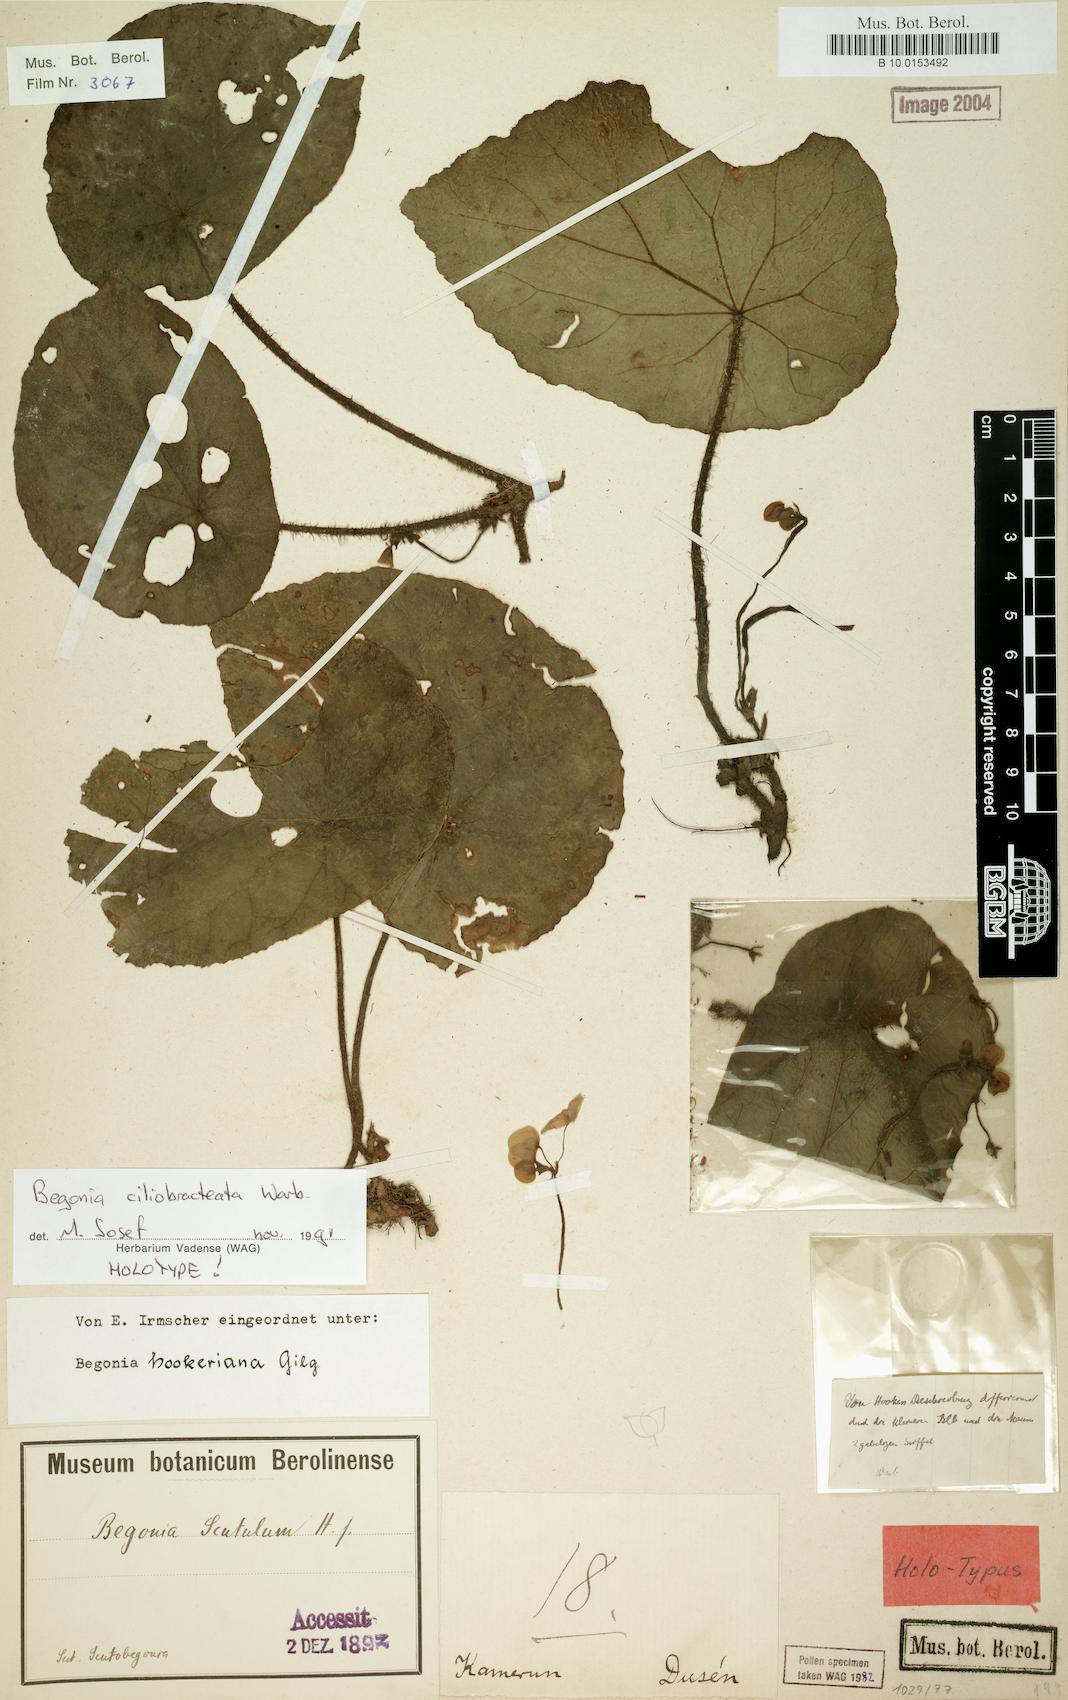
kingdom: Plantae
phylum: Tracheophyta
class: Magnoliopsida
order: Cucurbitales
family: Begoniaceae
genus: Begonia
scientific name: Begonia ciliobracteata
